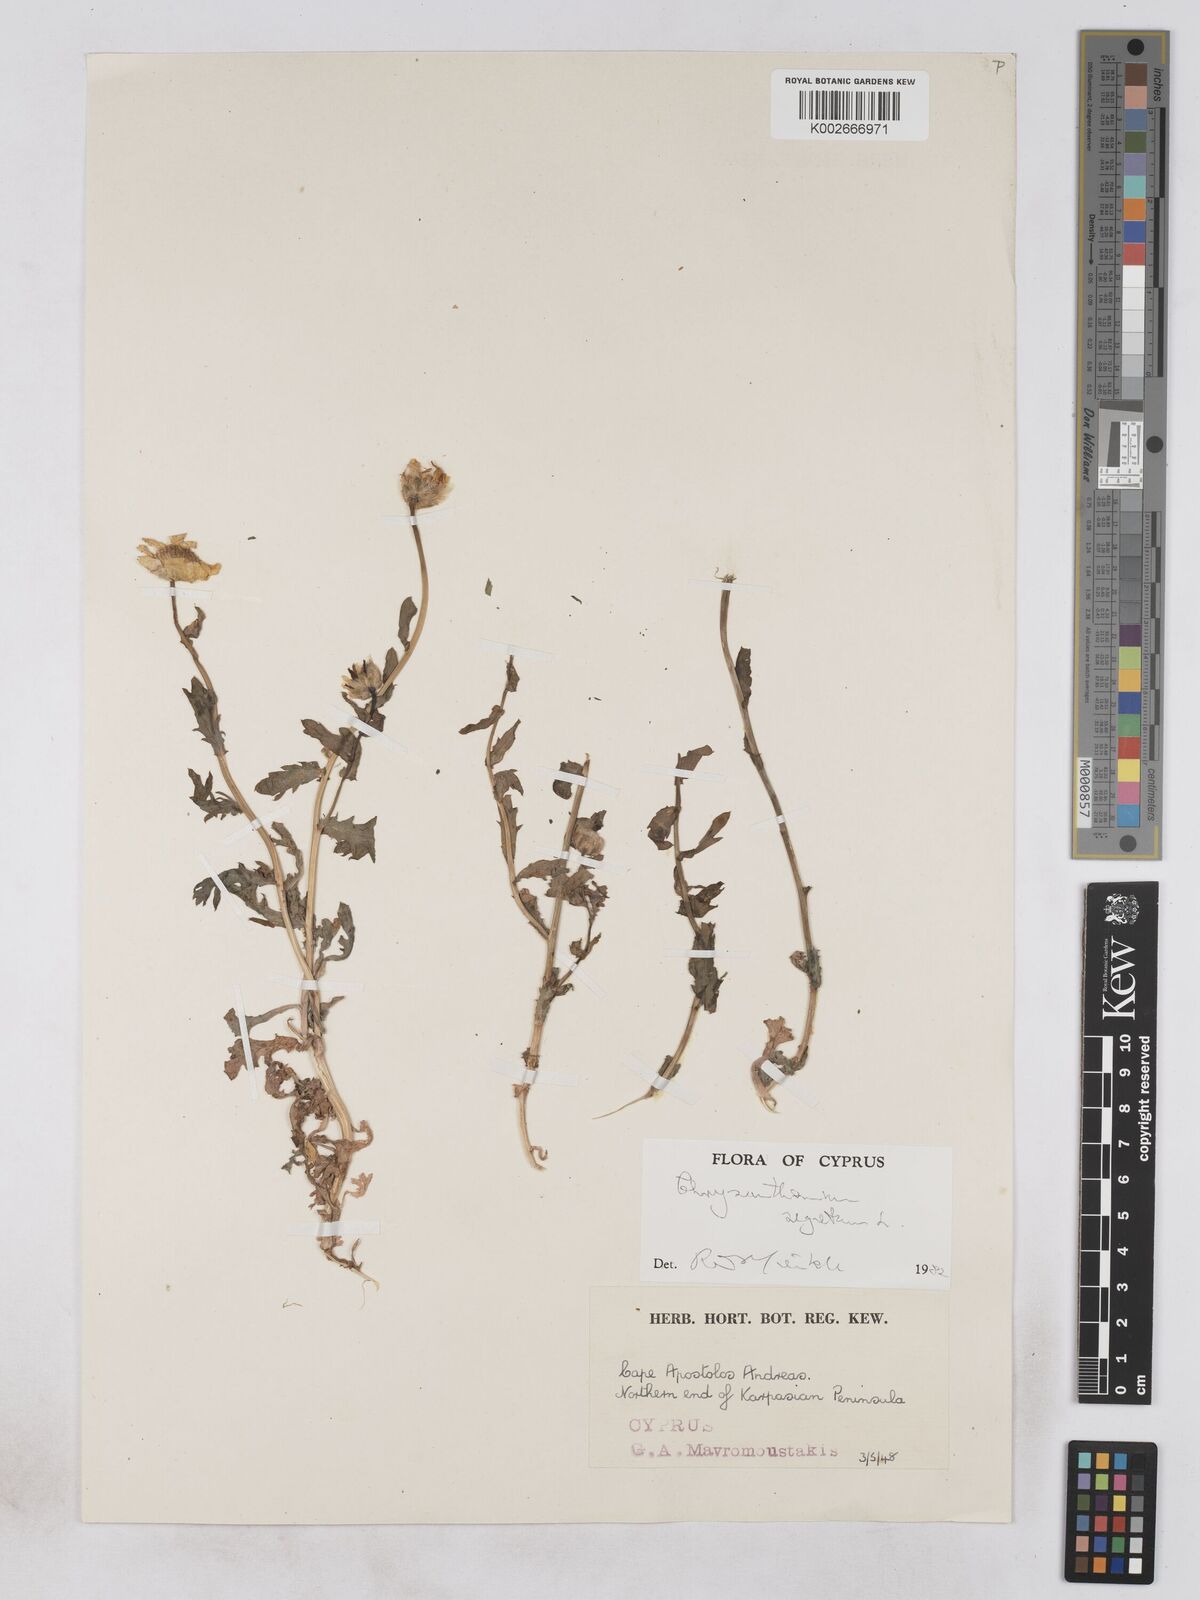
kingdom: Plantae
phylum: Tracheophyta
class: Magnoliopsida
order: Asterales
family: Asteraceae
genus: Glebionis
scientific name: Glebionis segetum
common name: Corndaisy
